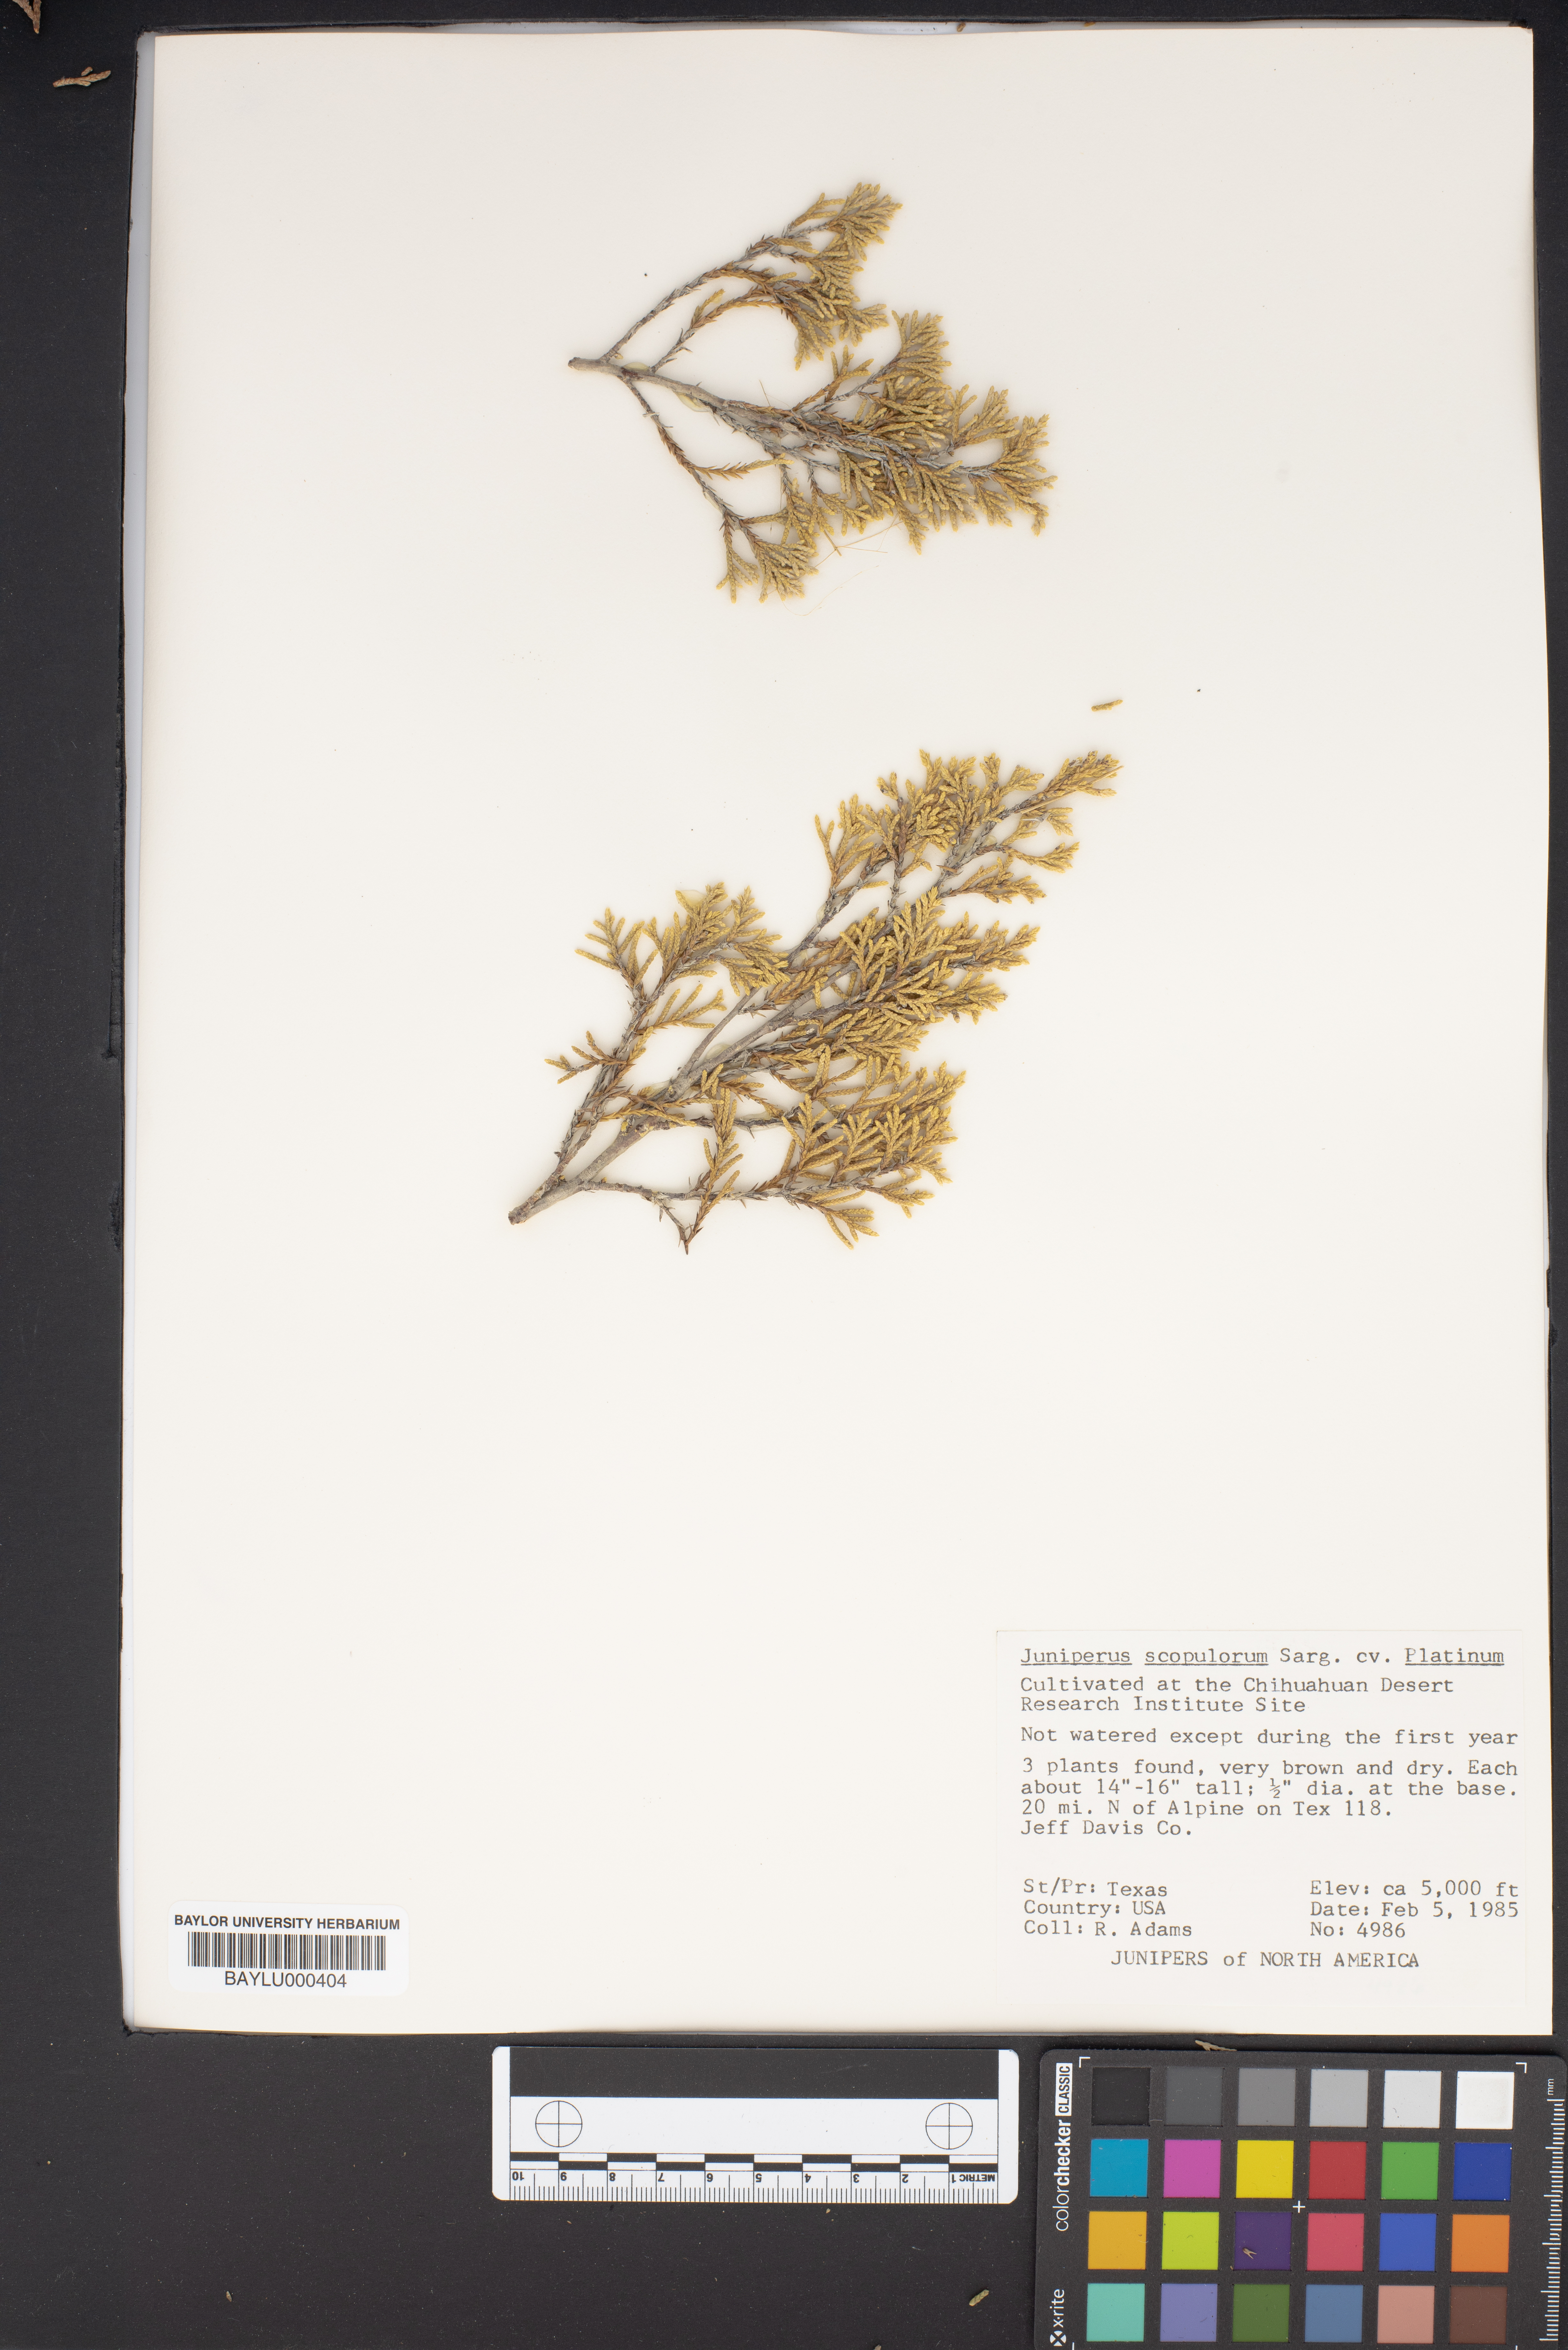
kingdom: Plantae
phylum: Tracheophyta
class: Pinopsida
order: Pinales
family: Cupressaceae
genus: Juniperus
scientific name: Juniperus scopulorum
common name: Rocky mountain juniper
